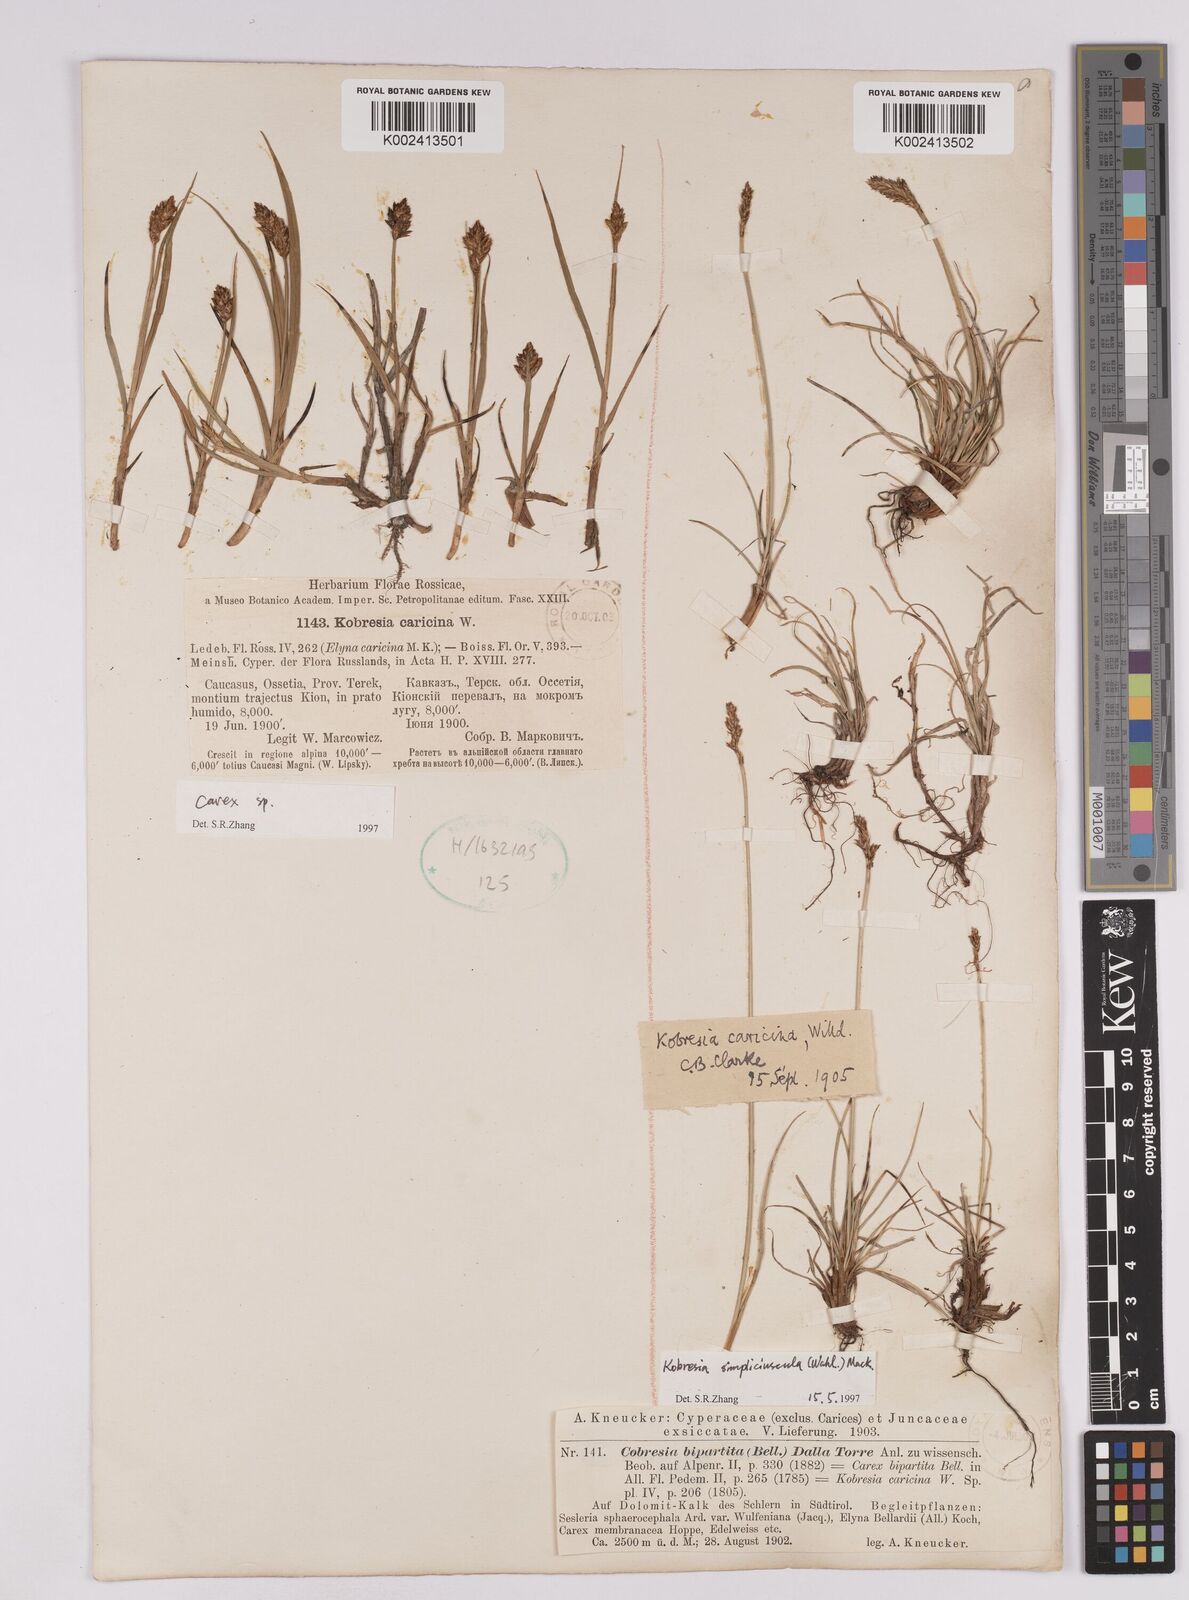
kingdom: Plantae
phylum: Tracheophyta
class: Liliopsida
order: Poales
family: Cyperaceae
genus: Carex
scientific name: Carex simpliciuscula
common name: Simple bog sedge
